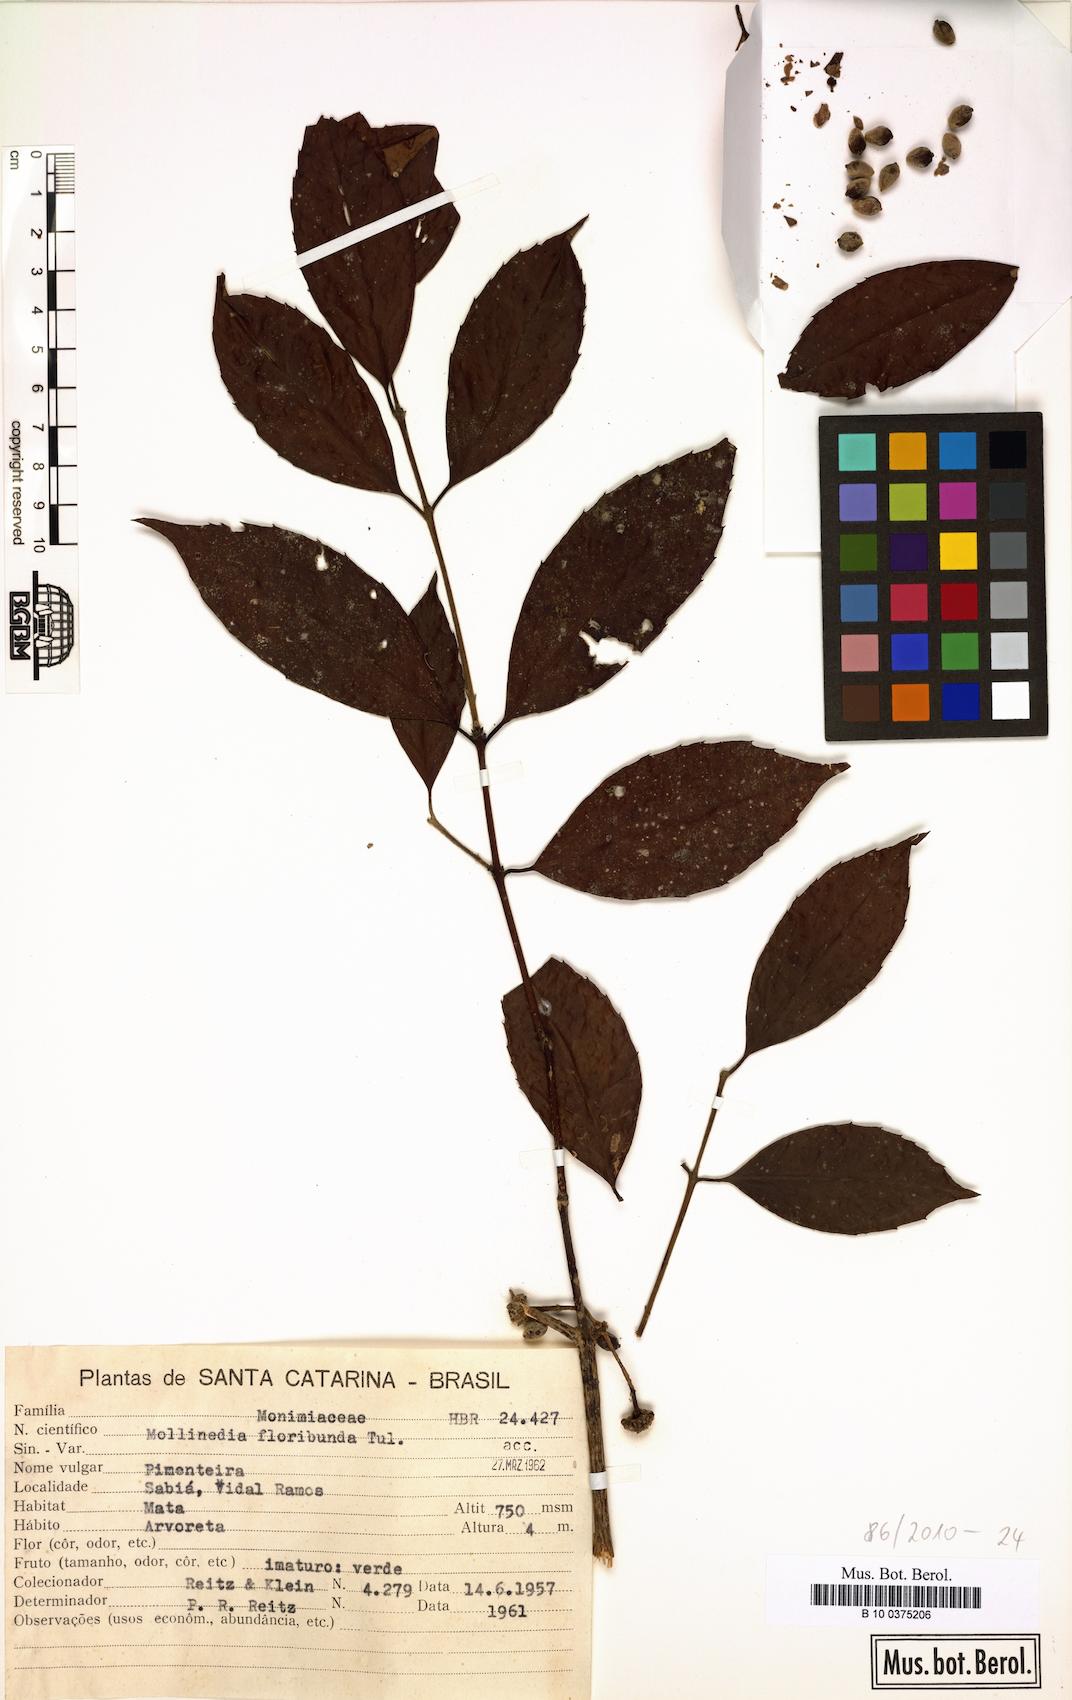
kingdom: Plantae
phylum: Tracheophyta
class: Magnoliopsida
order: Laurales
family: Monimiaceae
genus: Mollinedia
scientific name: Mollinedia umbellata
